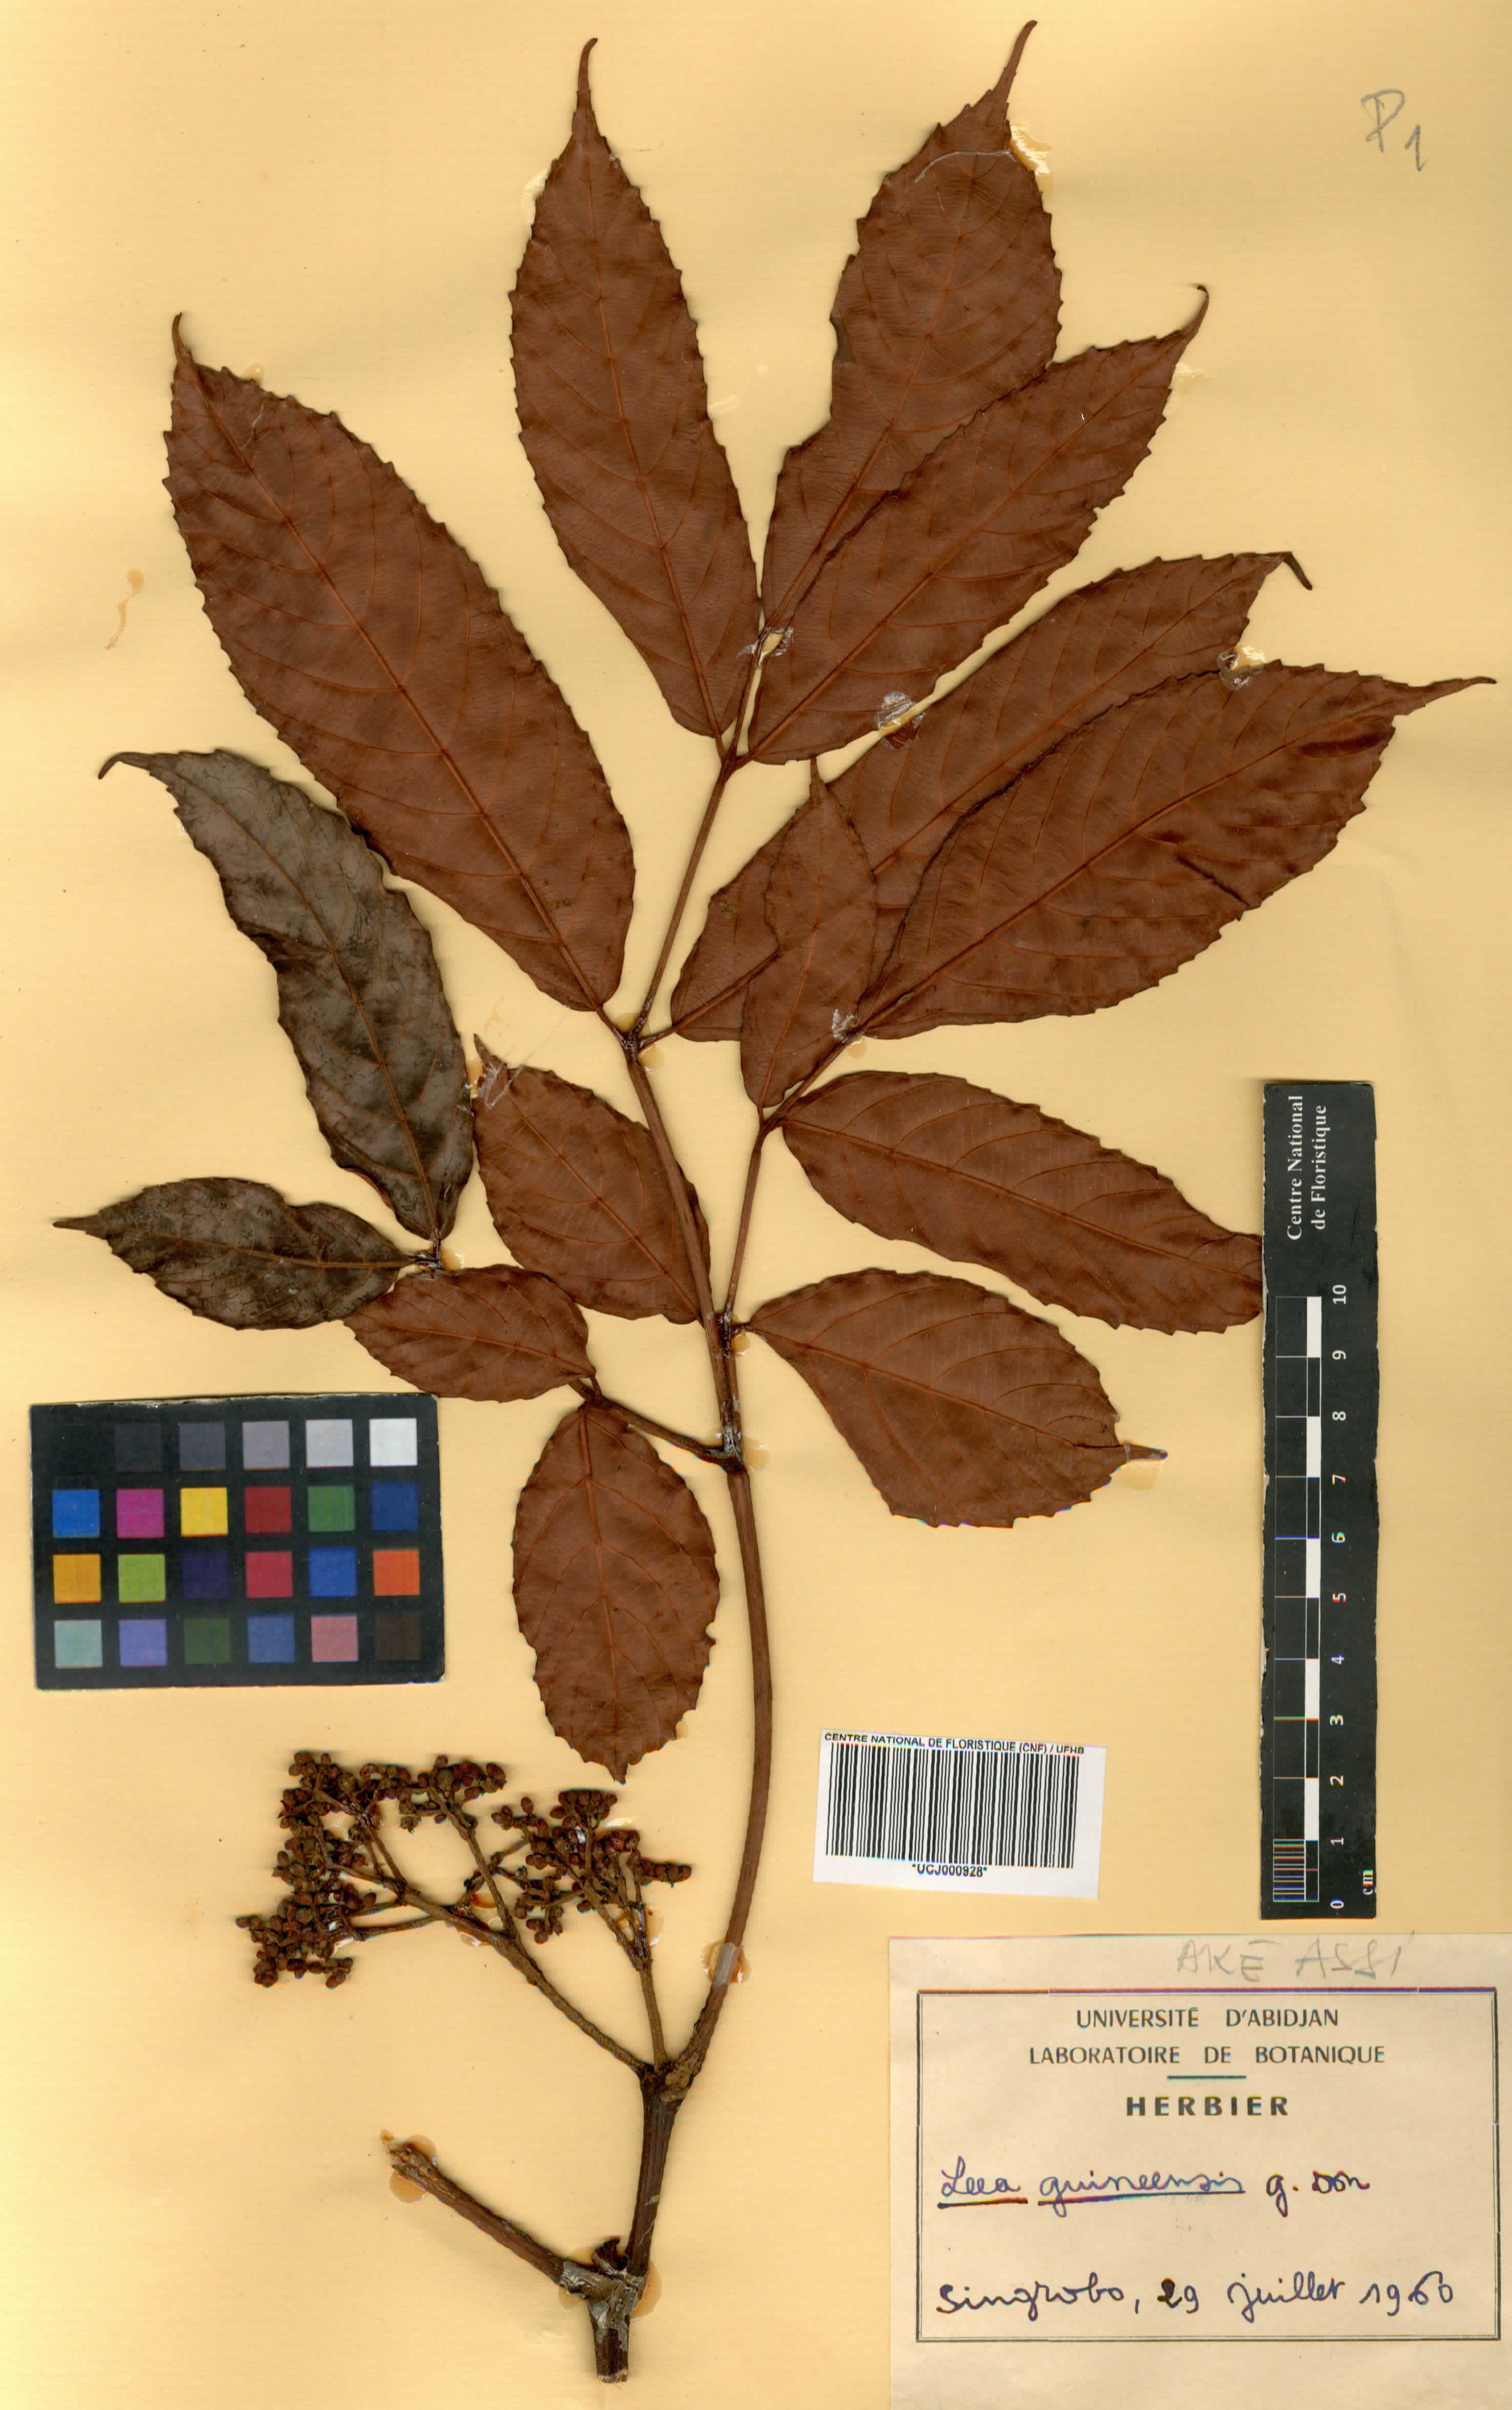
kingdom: Plantae
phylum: Tracheophyta
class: Magnoliopsida
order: Vitales
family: Vitaceae
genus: Leea
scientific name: Leea guineensis
